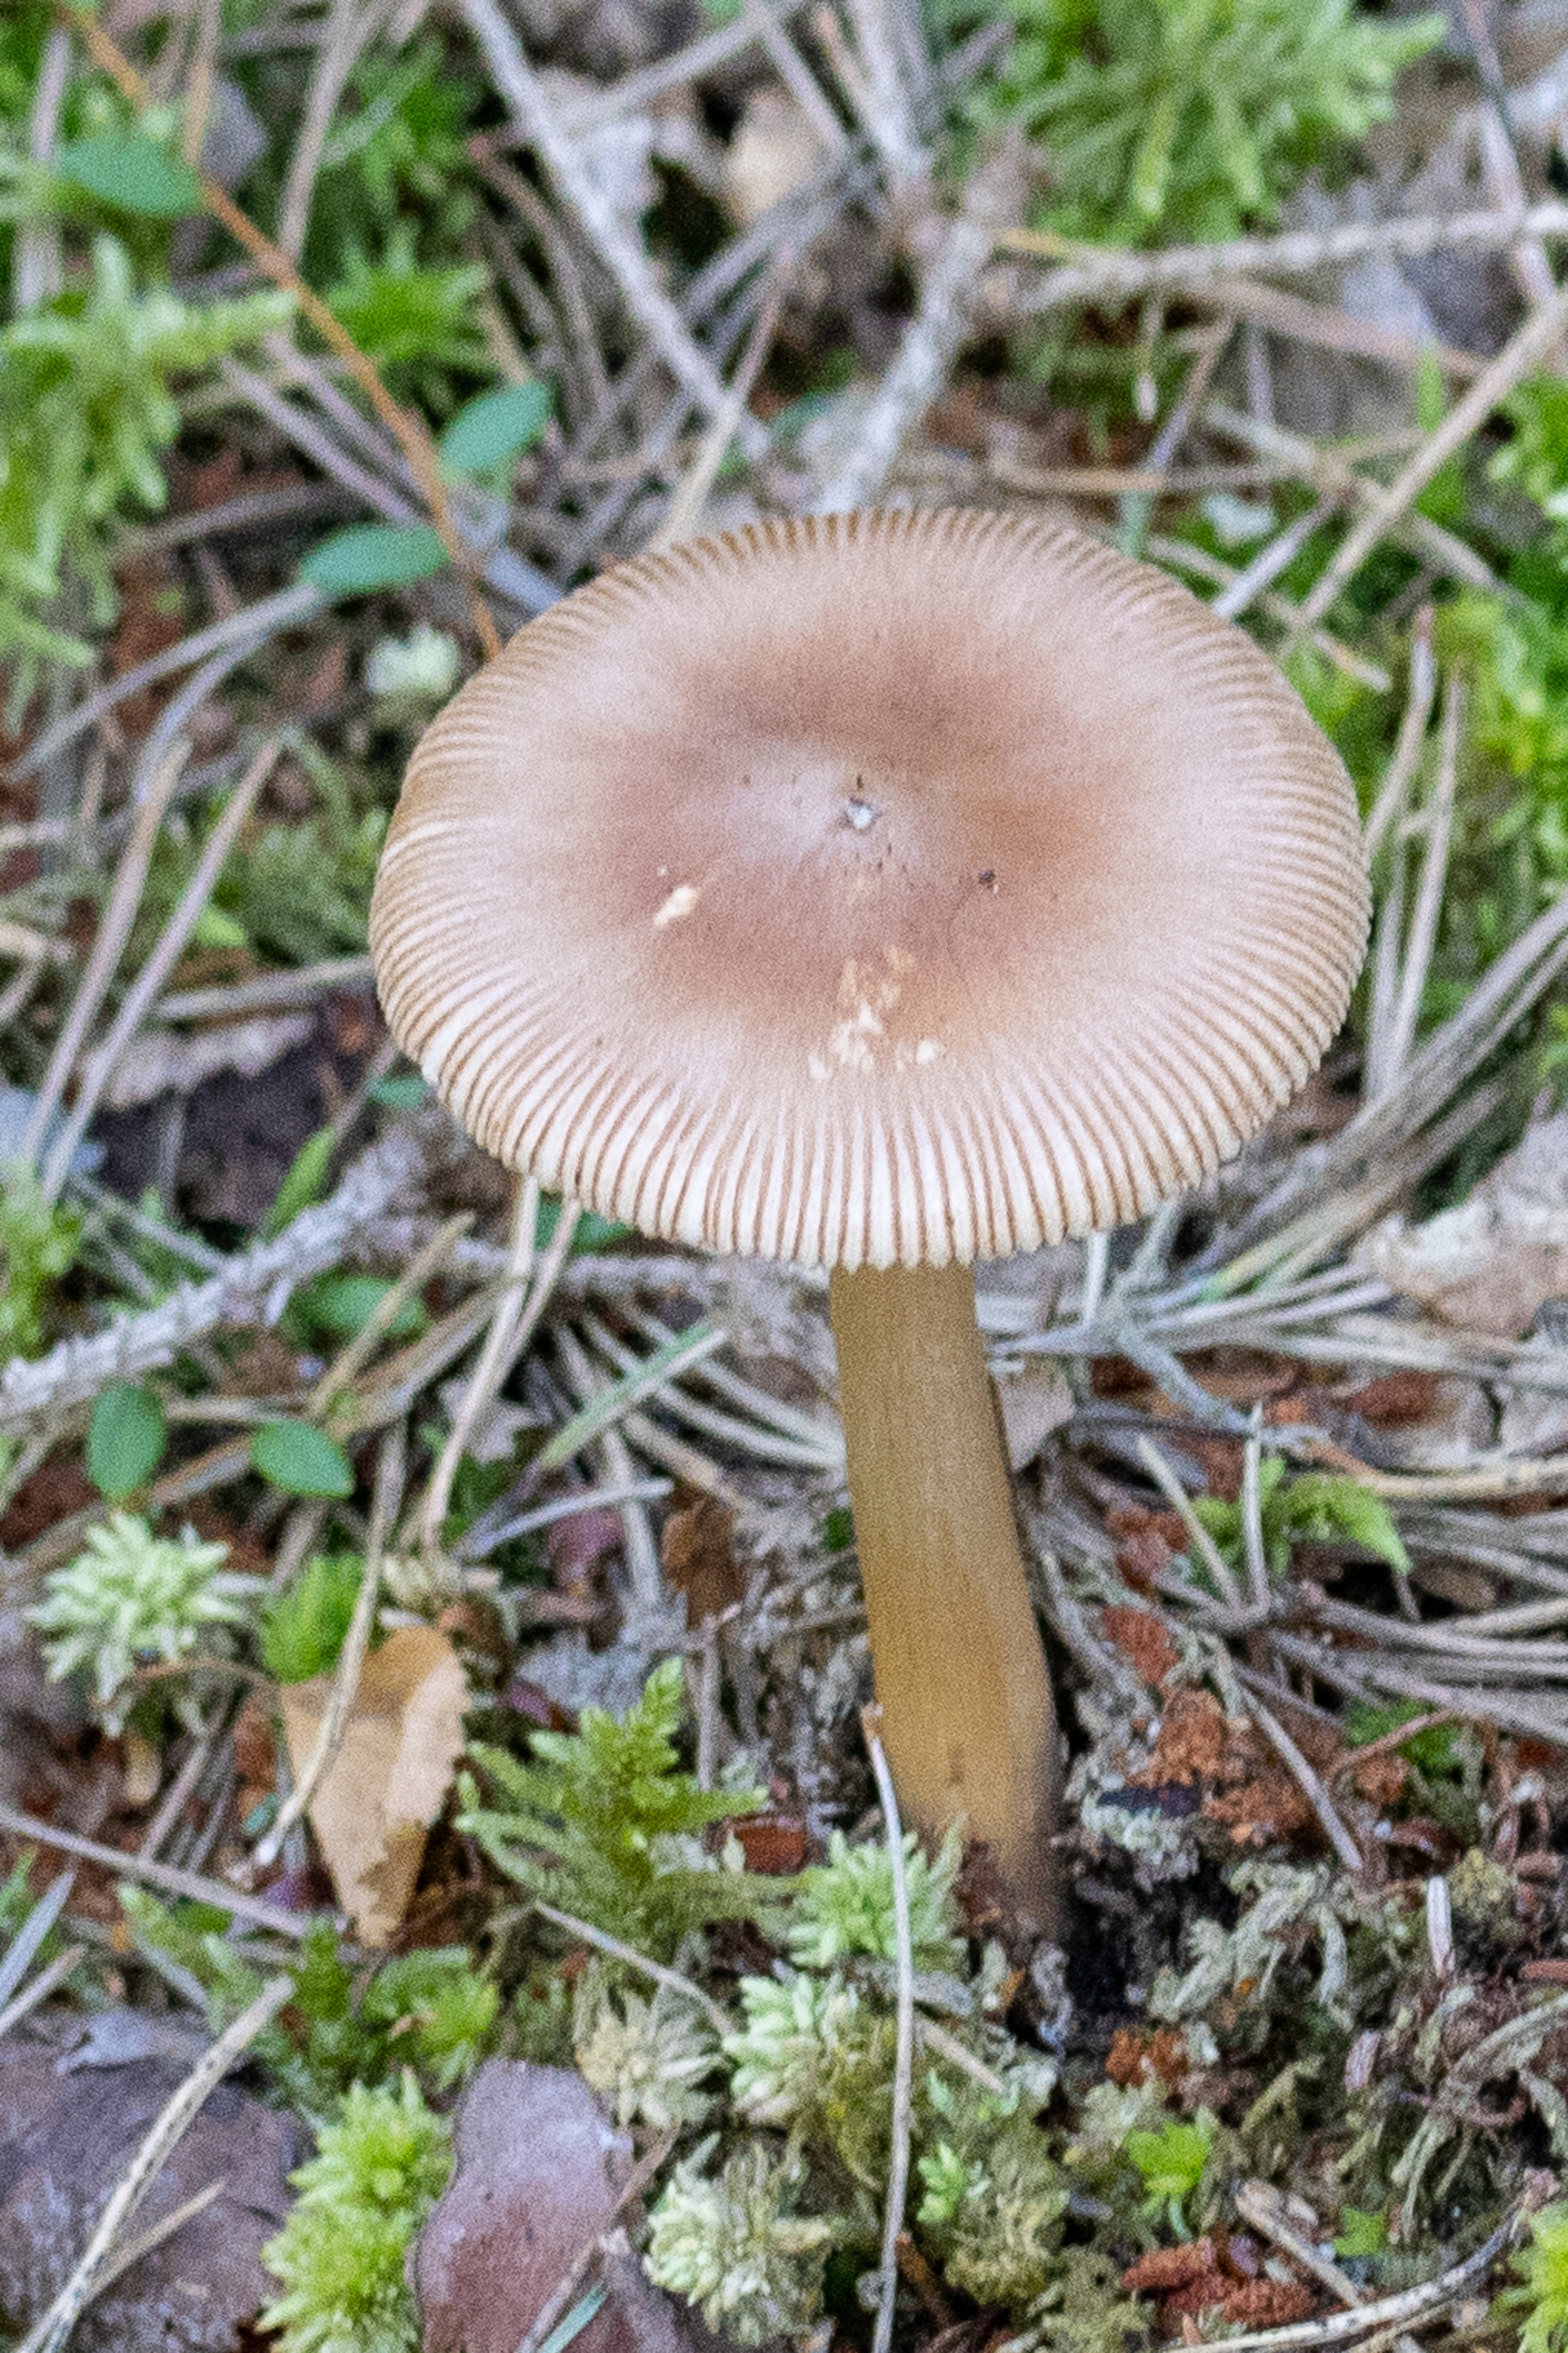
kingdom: Fungi
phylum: Basidiomycota
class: Agaricomycetes
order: Agaricales
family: Amanitaceae
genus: Amanita
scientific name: Amanita fulva
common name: Brun kam-fluesvamp
